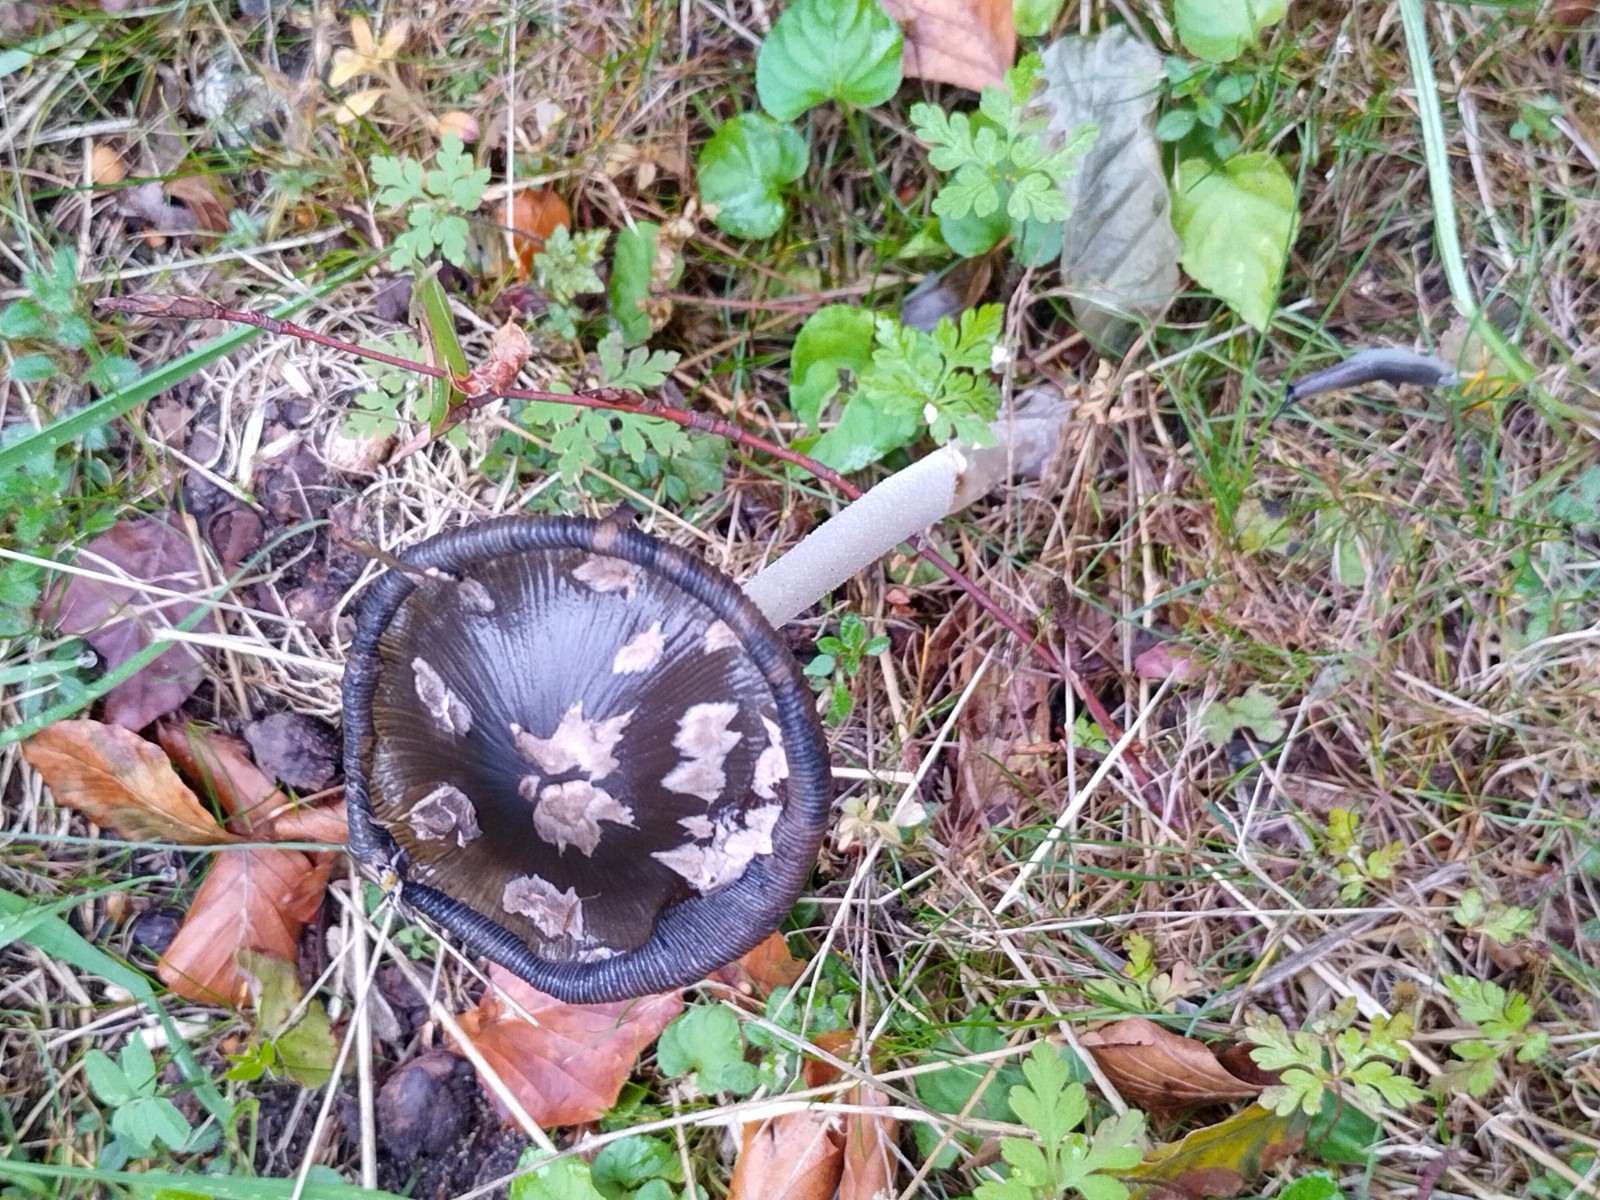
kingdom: Fungi
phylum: Basidiomycota
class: Agaricomycetes
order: Agaricales
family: Psathyrellaceae
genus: Coprinopsis
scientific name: Coprinopsis picacea
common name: skade-blækhat
